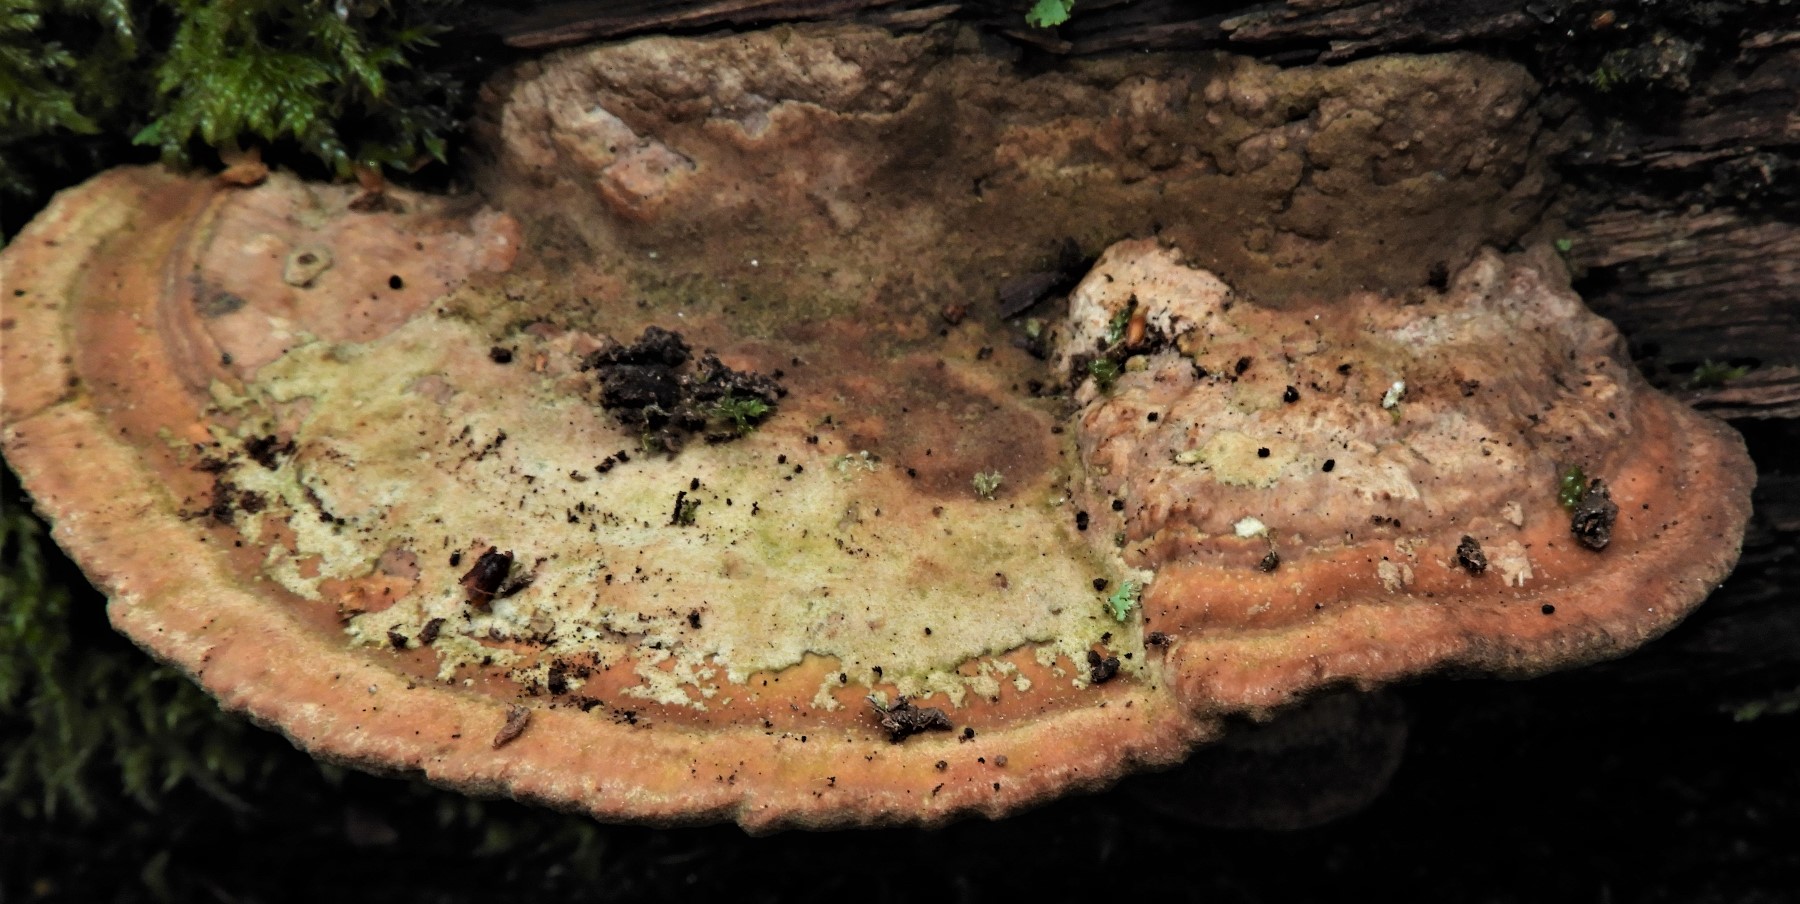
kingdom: Fungi
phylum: Basidiomycota
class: Agaricomycetes
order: Polyporales
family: Fomitopsidaceae
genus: Daedalea
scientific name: Daedalea quercina
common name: ege-labyrintsvamp
